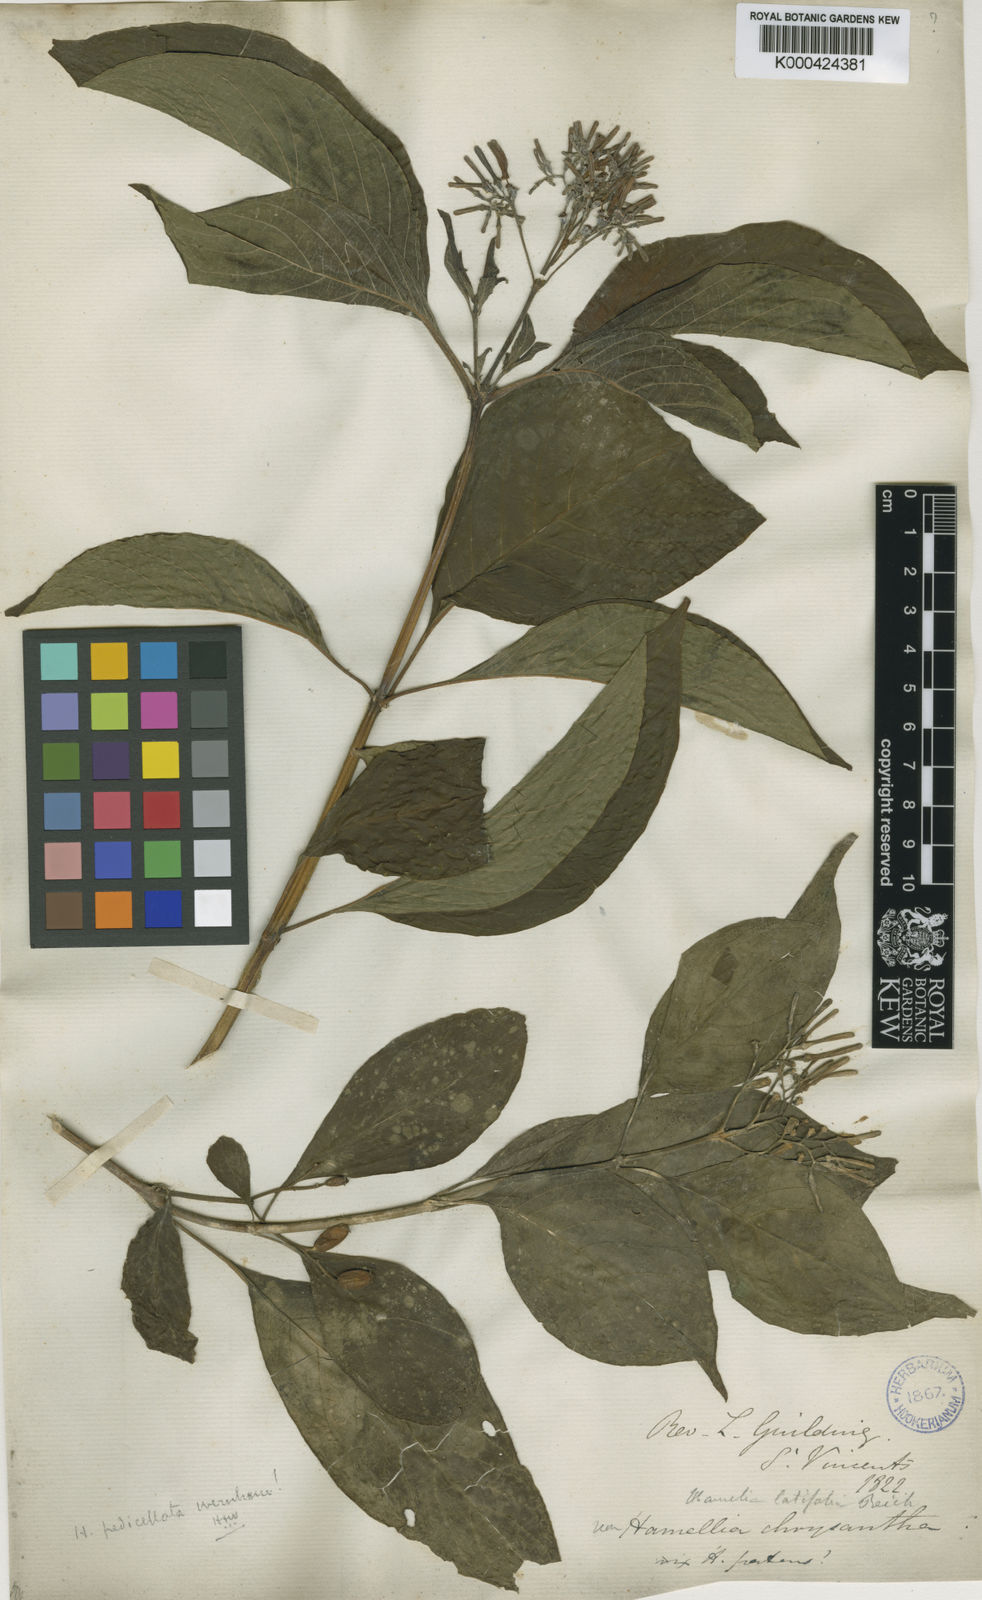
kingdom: Plantae
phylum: Tracheophyta
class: Magnoliopsida
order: Gentianales
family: Rubiaceae
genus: Hamelia
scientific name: Hamelia patens
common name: Redhead
